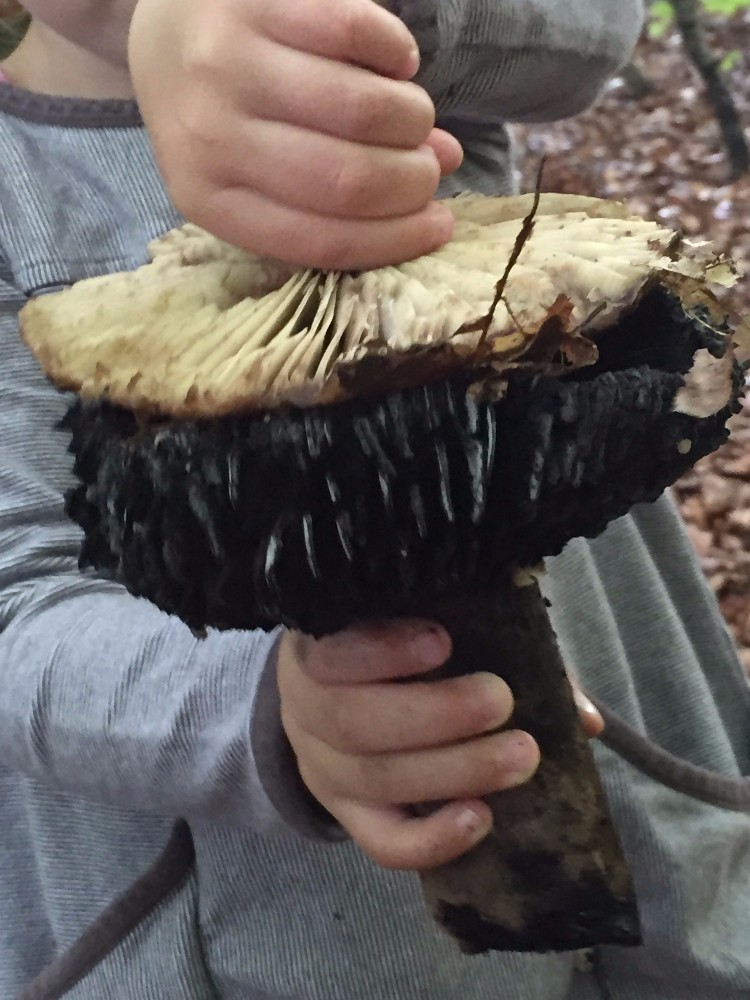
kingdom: Fungi
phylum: Basidiomycota
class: Agaricomycetes
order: Russulales
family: Russulaceae
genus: Russula
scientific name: Russula adusta
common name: sværtende skørhat
